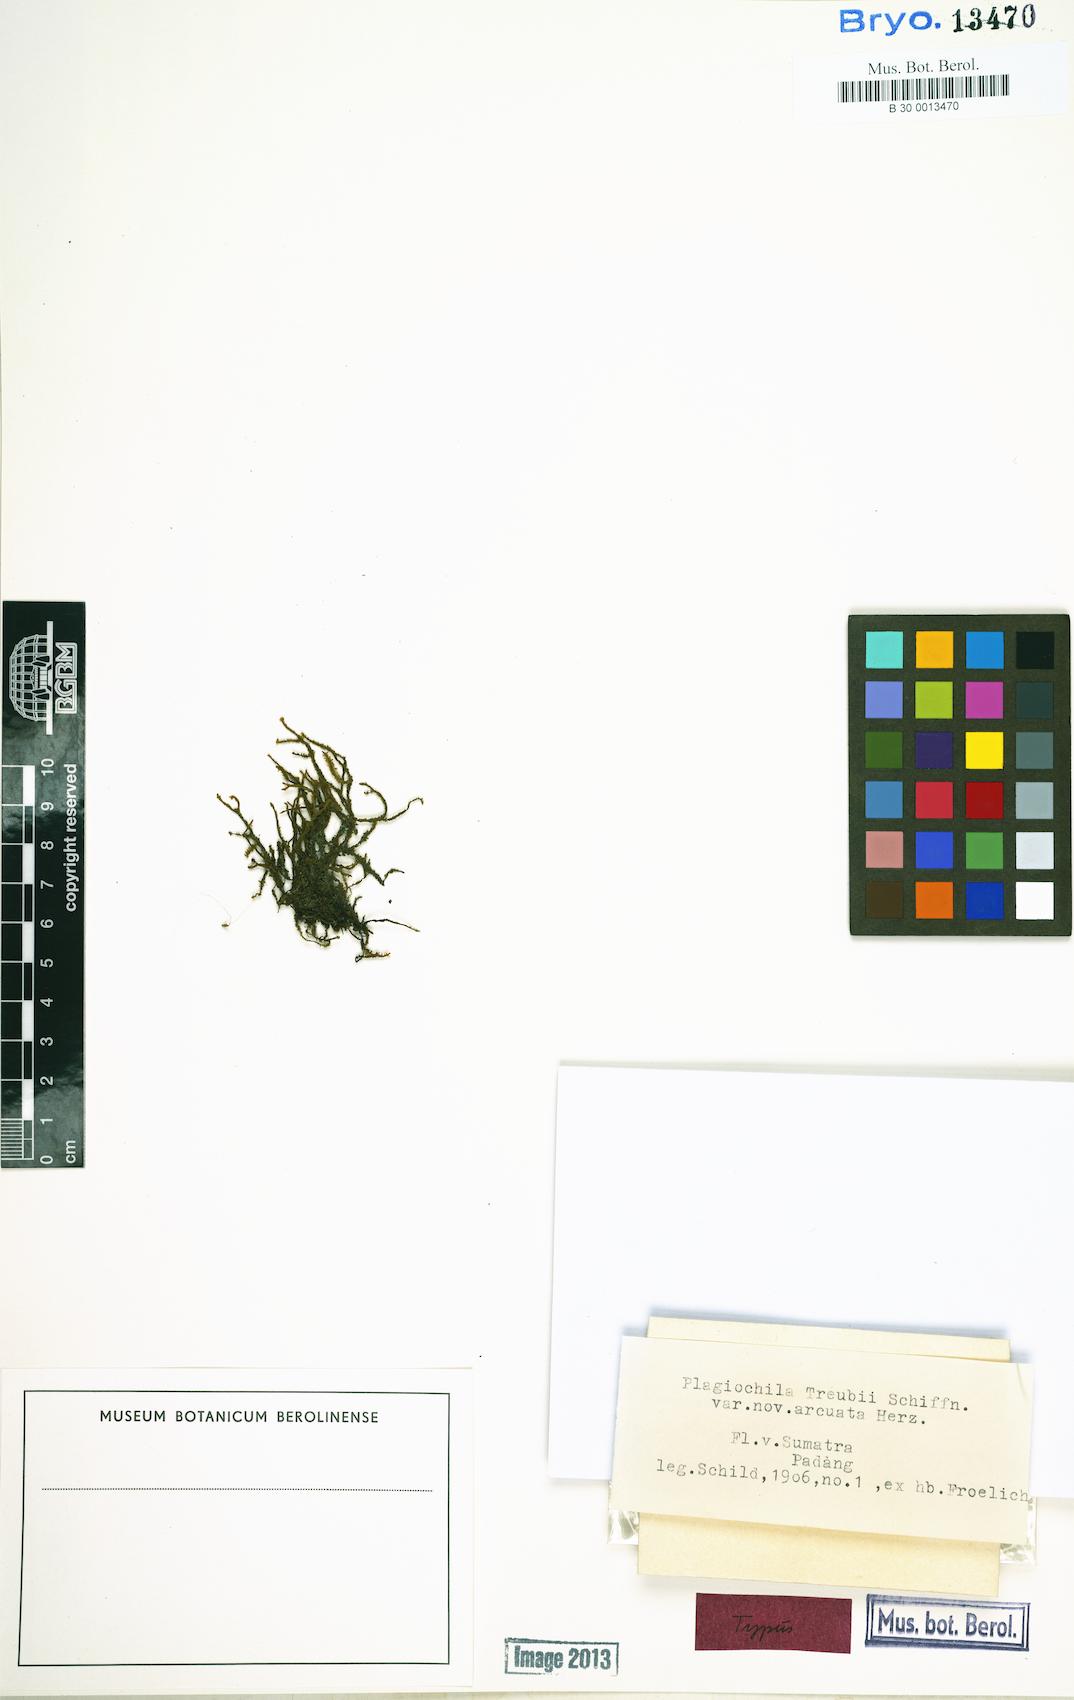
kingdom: Plantae
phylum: Marchantiophyta
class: Jungermanniopsida
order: Jungermanniales
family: Plagiochilaceae
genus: Plagiochila
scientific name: Plagiochila parvifolia
